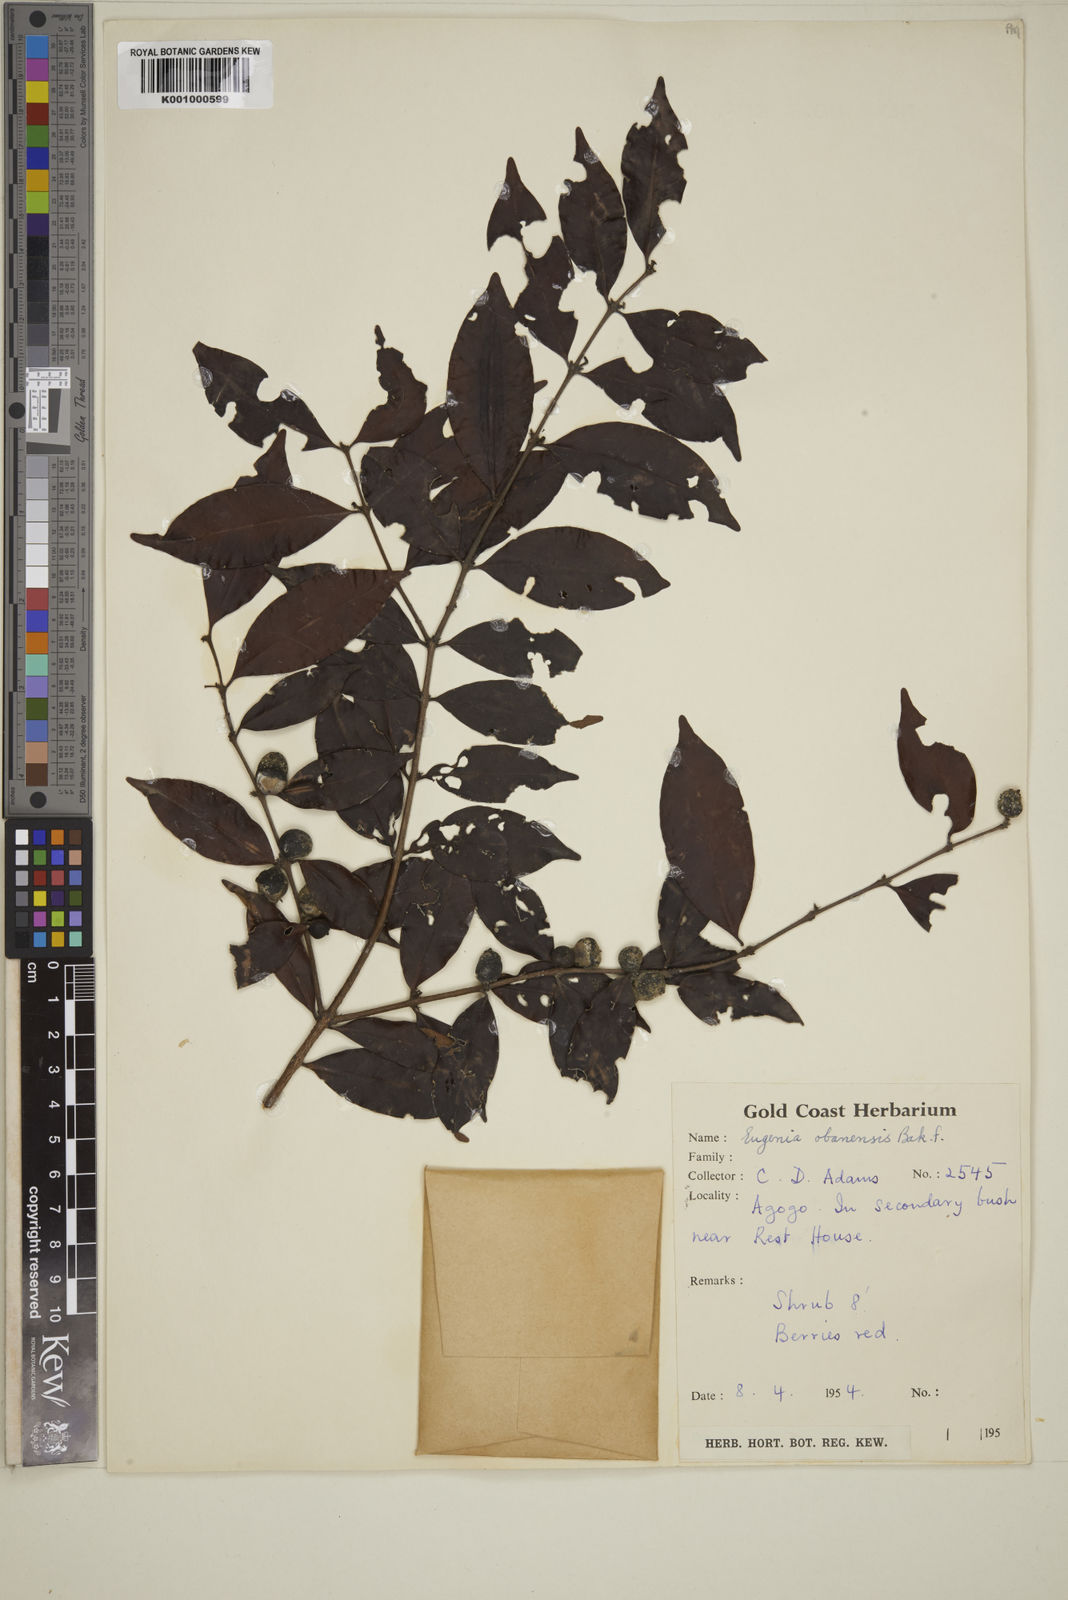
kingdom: Plantae
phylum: Tracheophyta
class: Magnoliopsida
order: Myrtales
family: Myrtaceae
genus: Eugenia
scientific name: Eugenia obanensis
